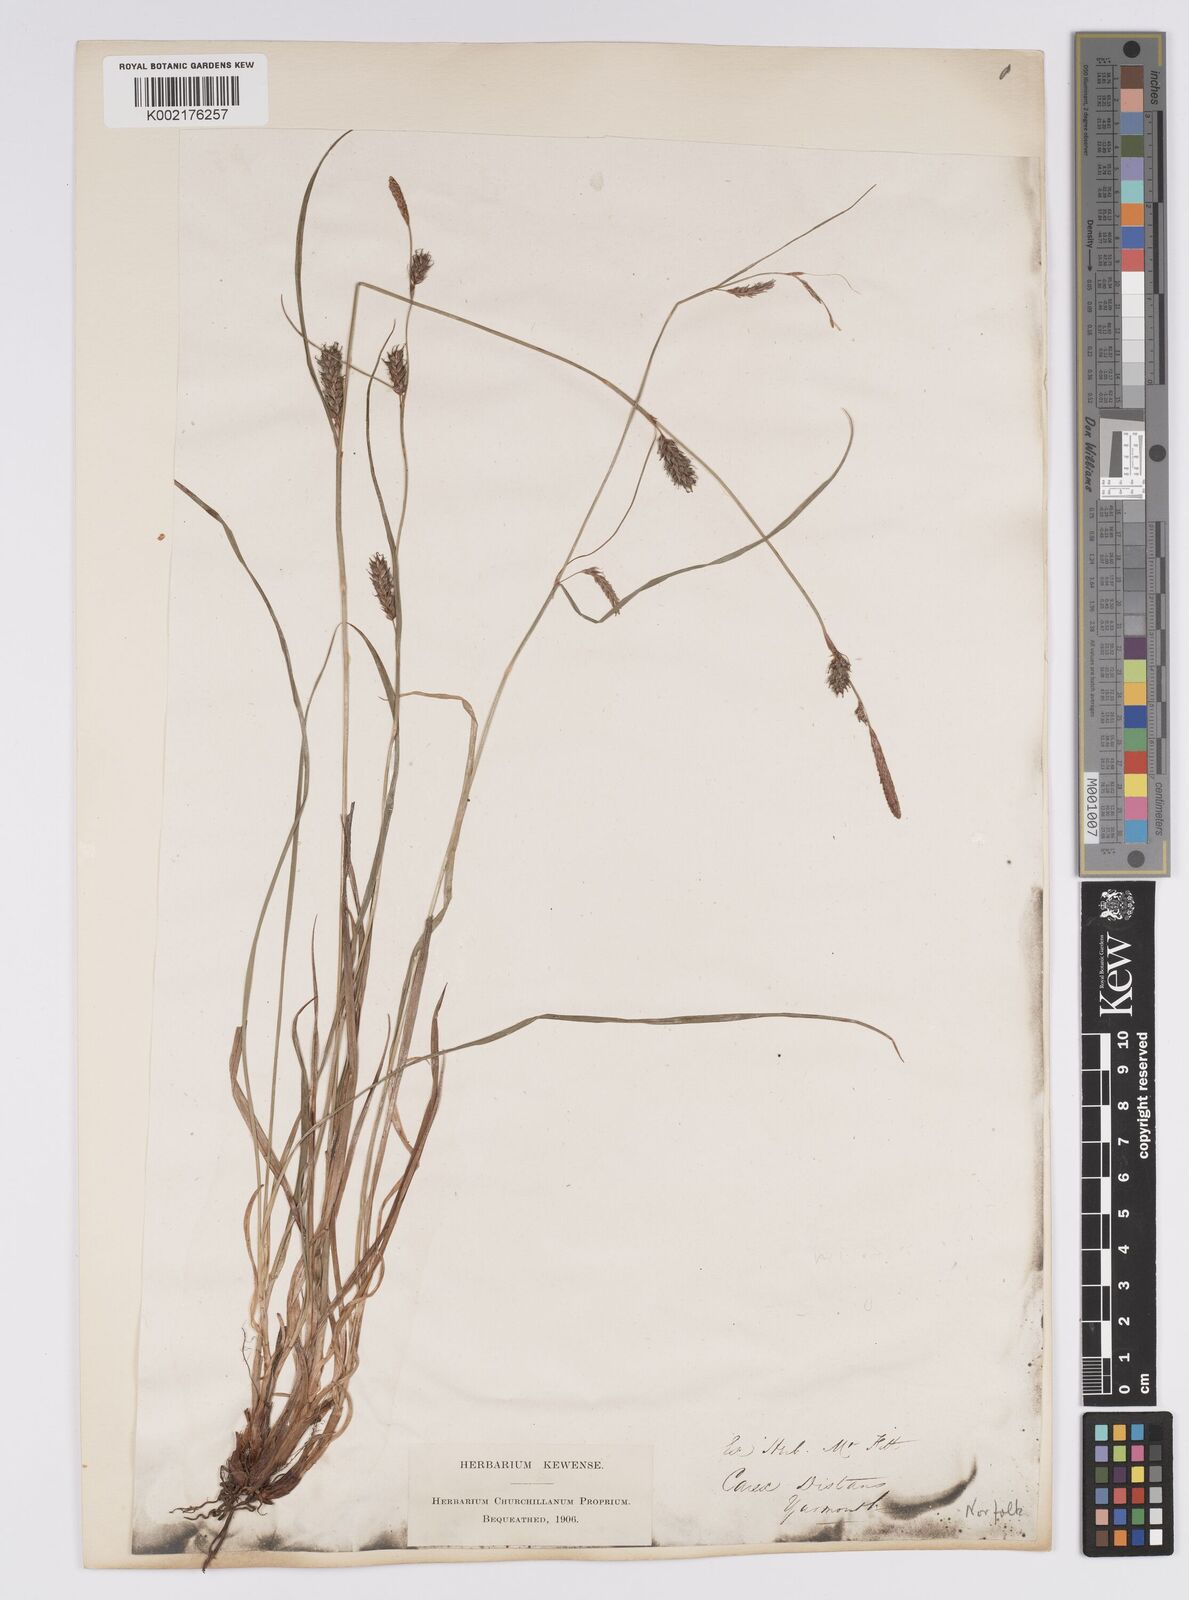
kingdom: Plantae
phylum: Tracheophyta
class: Liliopsida
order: Poales
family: Cyperaceae
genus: Carex
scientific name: Carex distans
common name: Distant sedge
